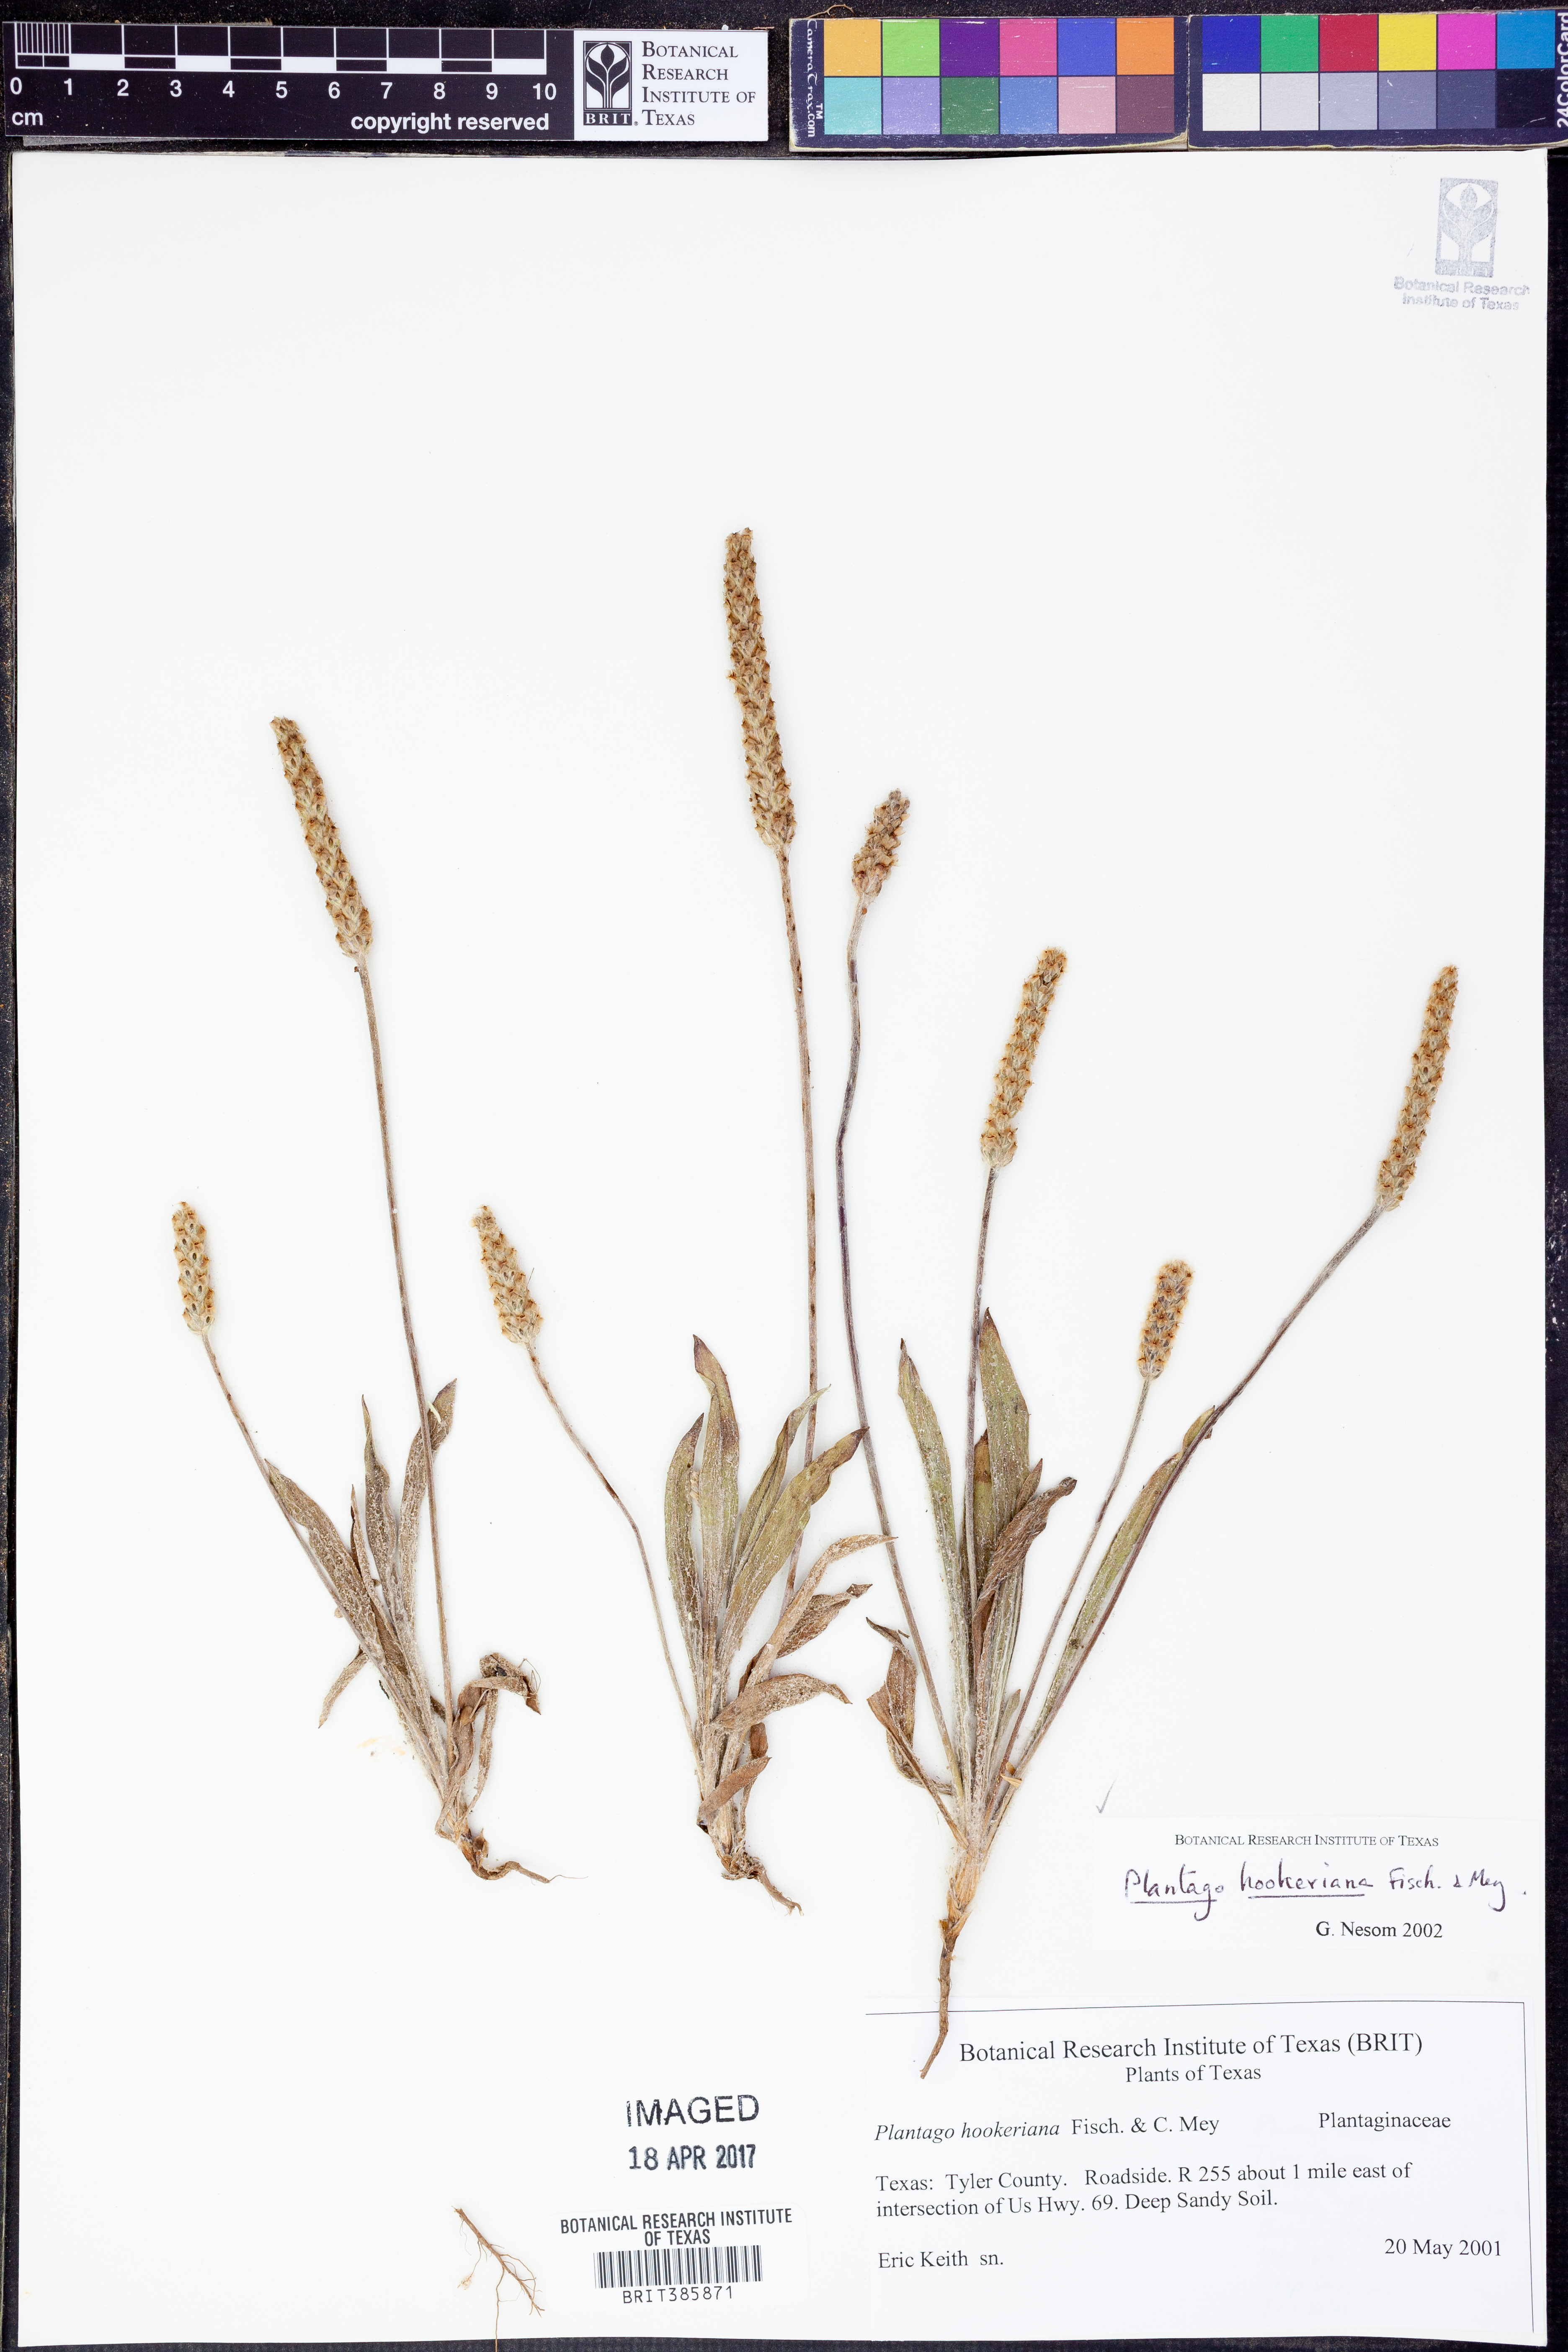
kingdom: Plantae
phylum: Tracheophyta
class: Magnoliopsida
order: Lamiales
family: Plantaginaceae
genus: Plantago
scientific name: Plantago hookeriana
